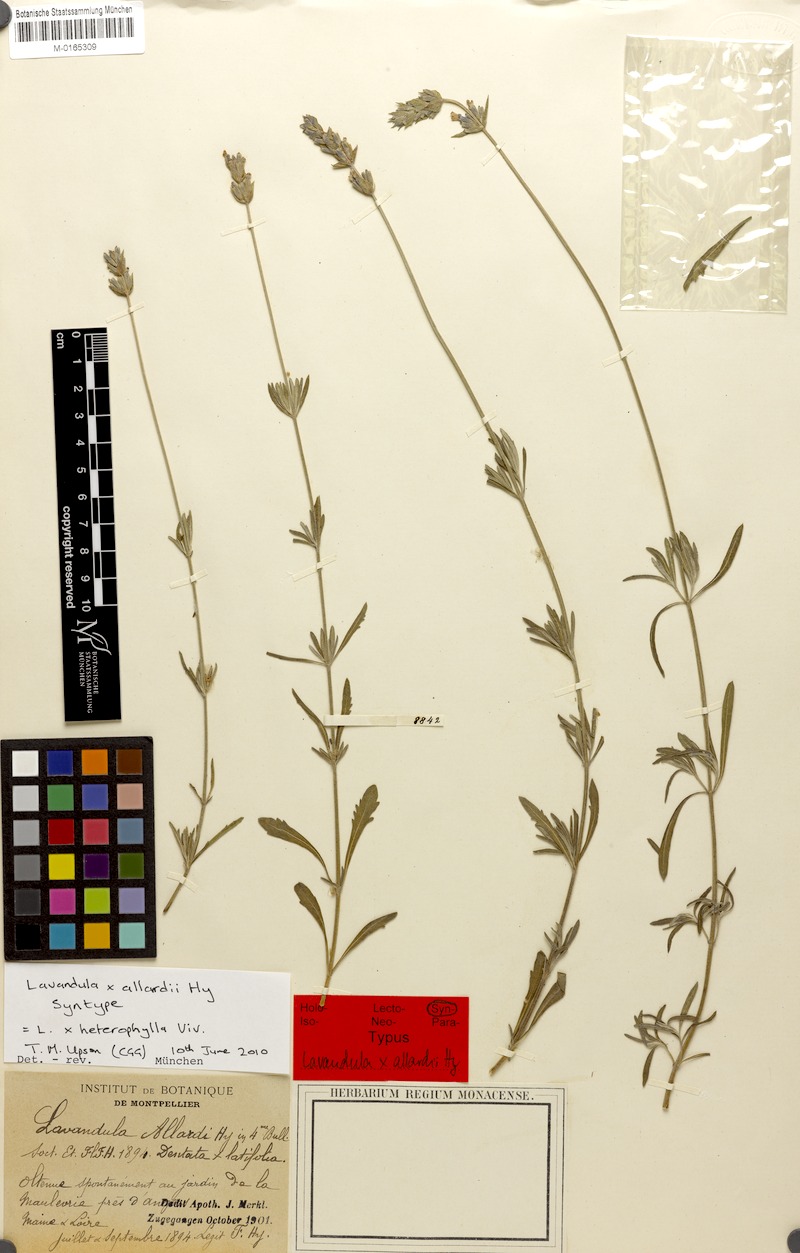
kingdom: Plantae
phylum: Tracheophyta
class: Magnoliopsida
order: Lamiales
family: Lamiaceae
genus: Lavandula
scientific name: Lavandula heterophylla
